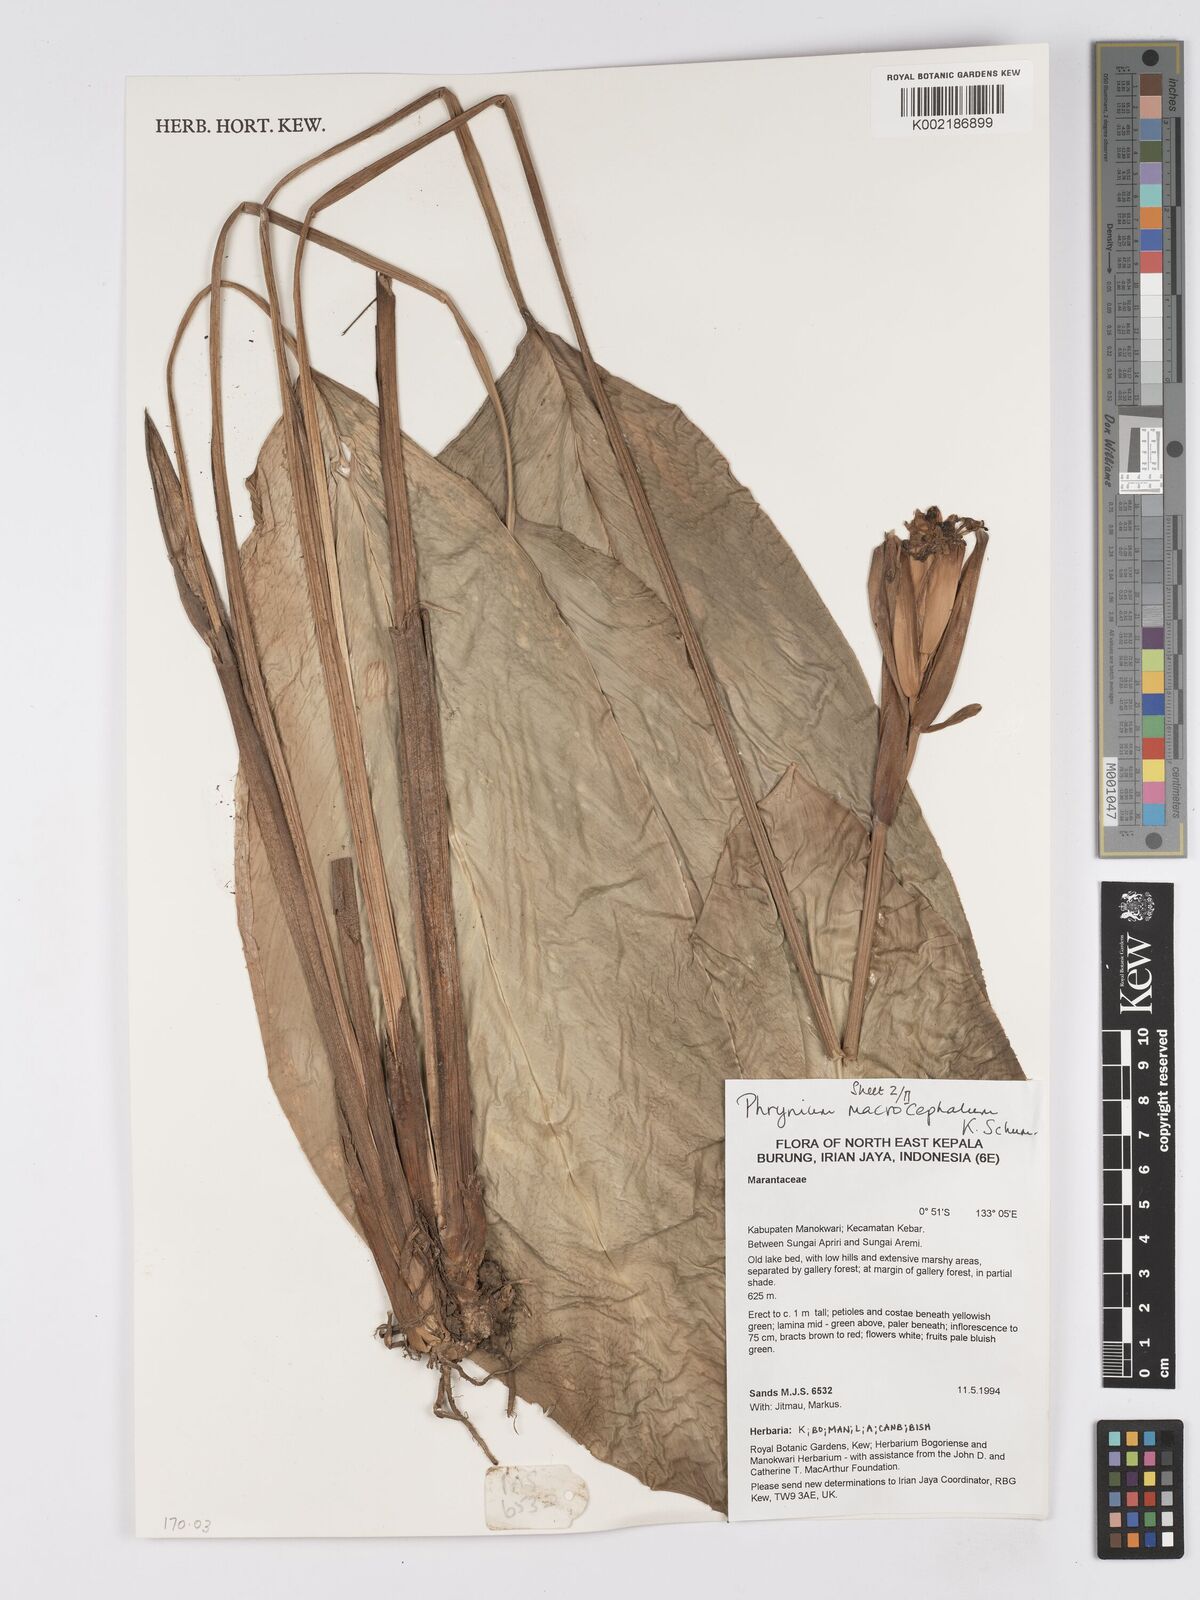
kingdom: Plantae
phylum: Tracheophyta
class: Liliopsida
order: Zingiberales
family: Marantaceae
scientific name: Marantaceae
